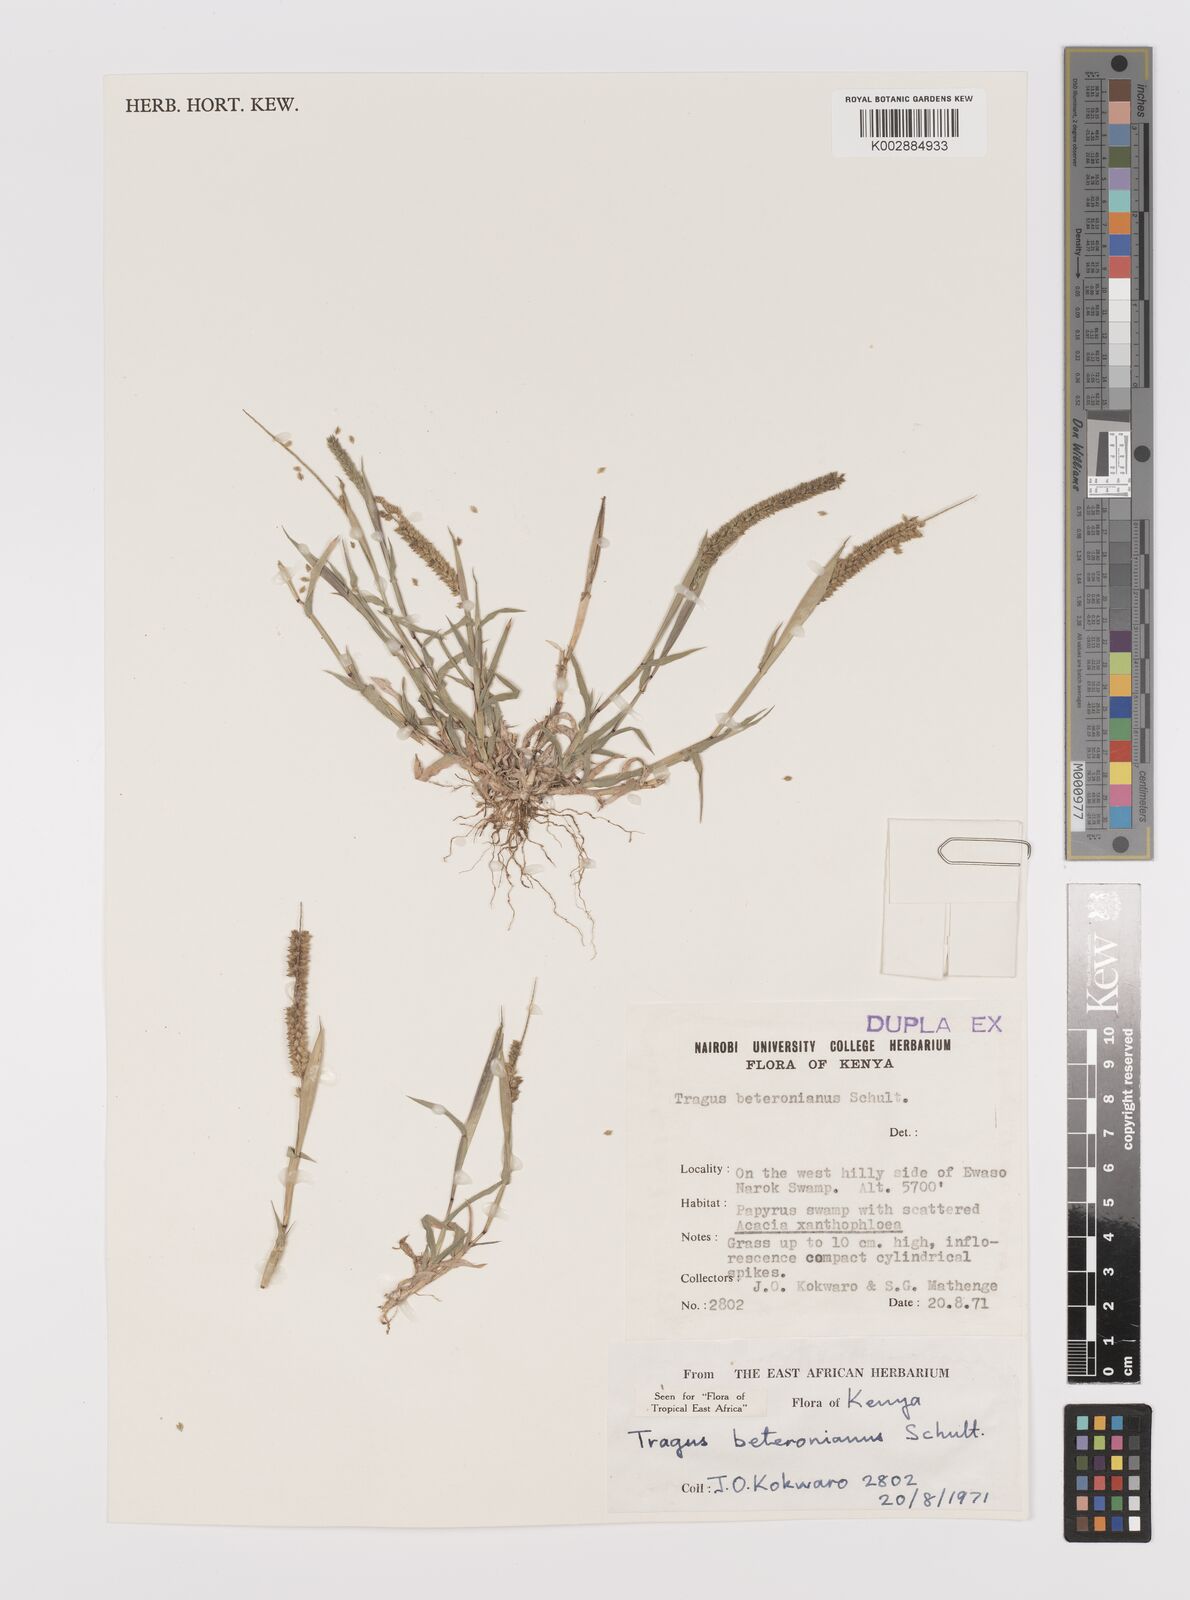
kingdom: Plantae
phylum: Tracheophyta
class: Liliopsida
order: Poales
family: Poaceae
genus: Tragus
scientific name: Tragus berteronianus
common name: African bur-grass
